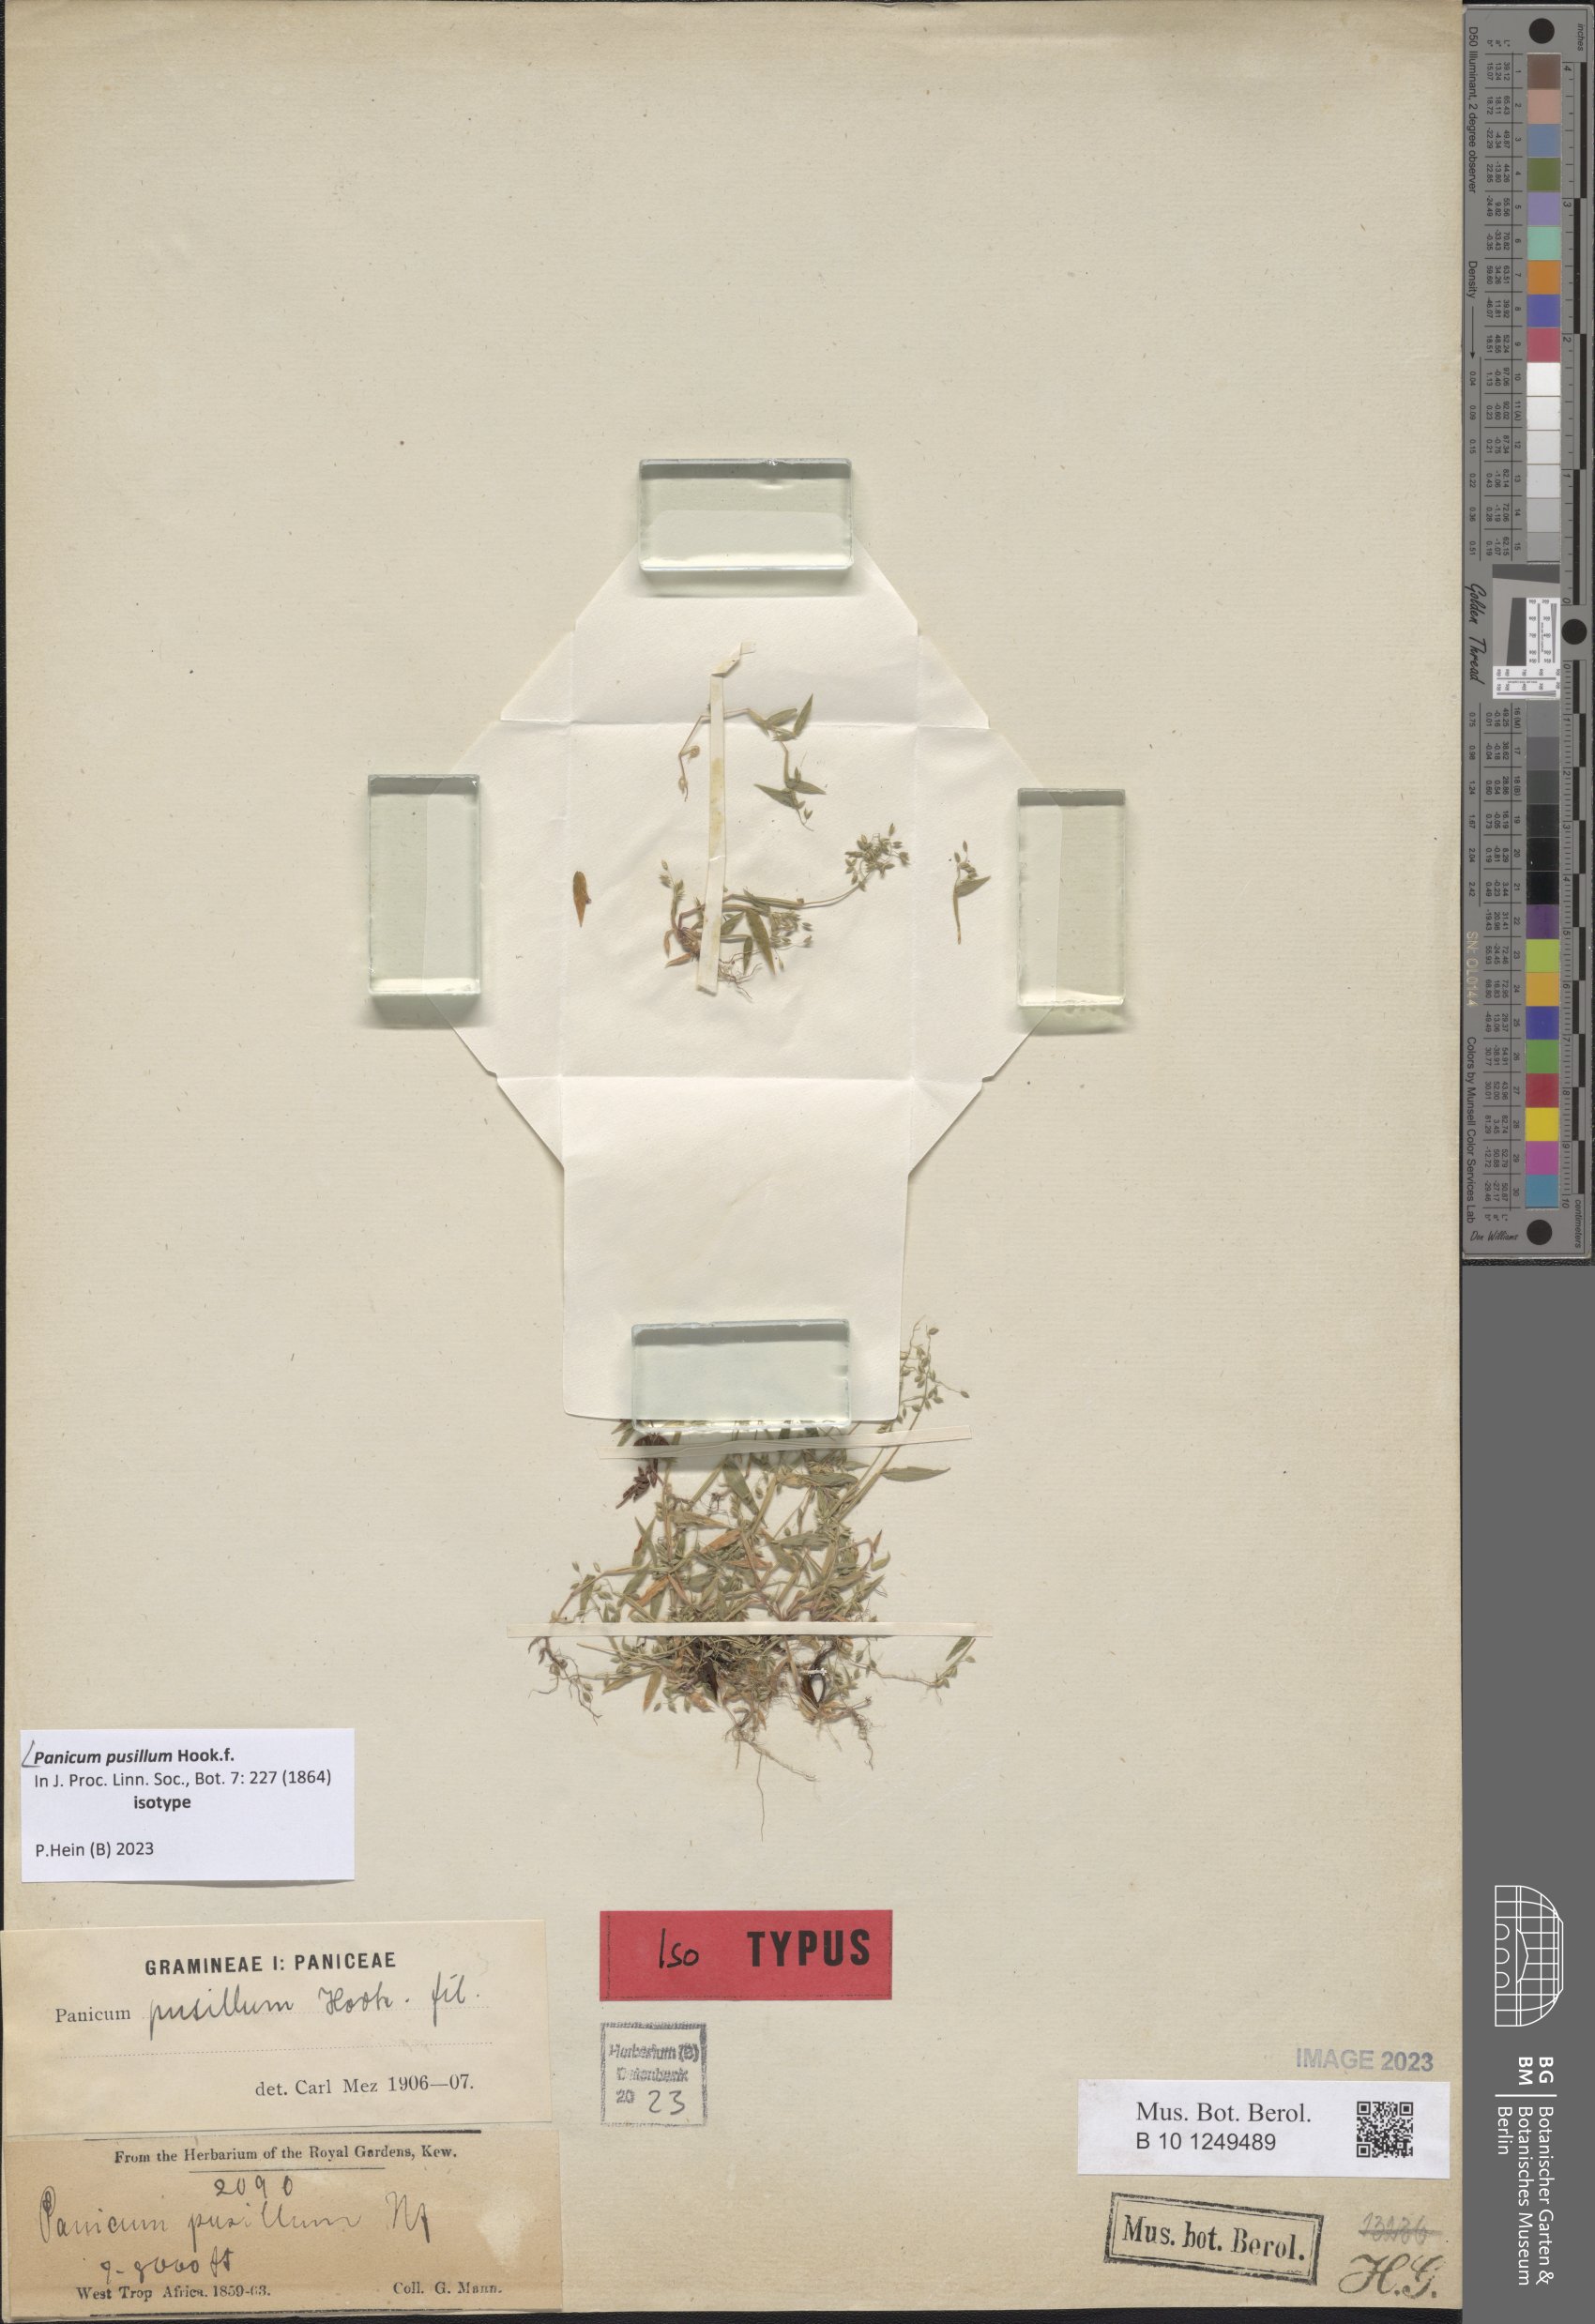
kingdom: Plantae
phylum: Tracheophyta
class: Liliopsida
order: Poales
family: Poaceae
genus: Panicum
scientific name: Panicum pusillum
